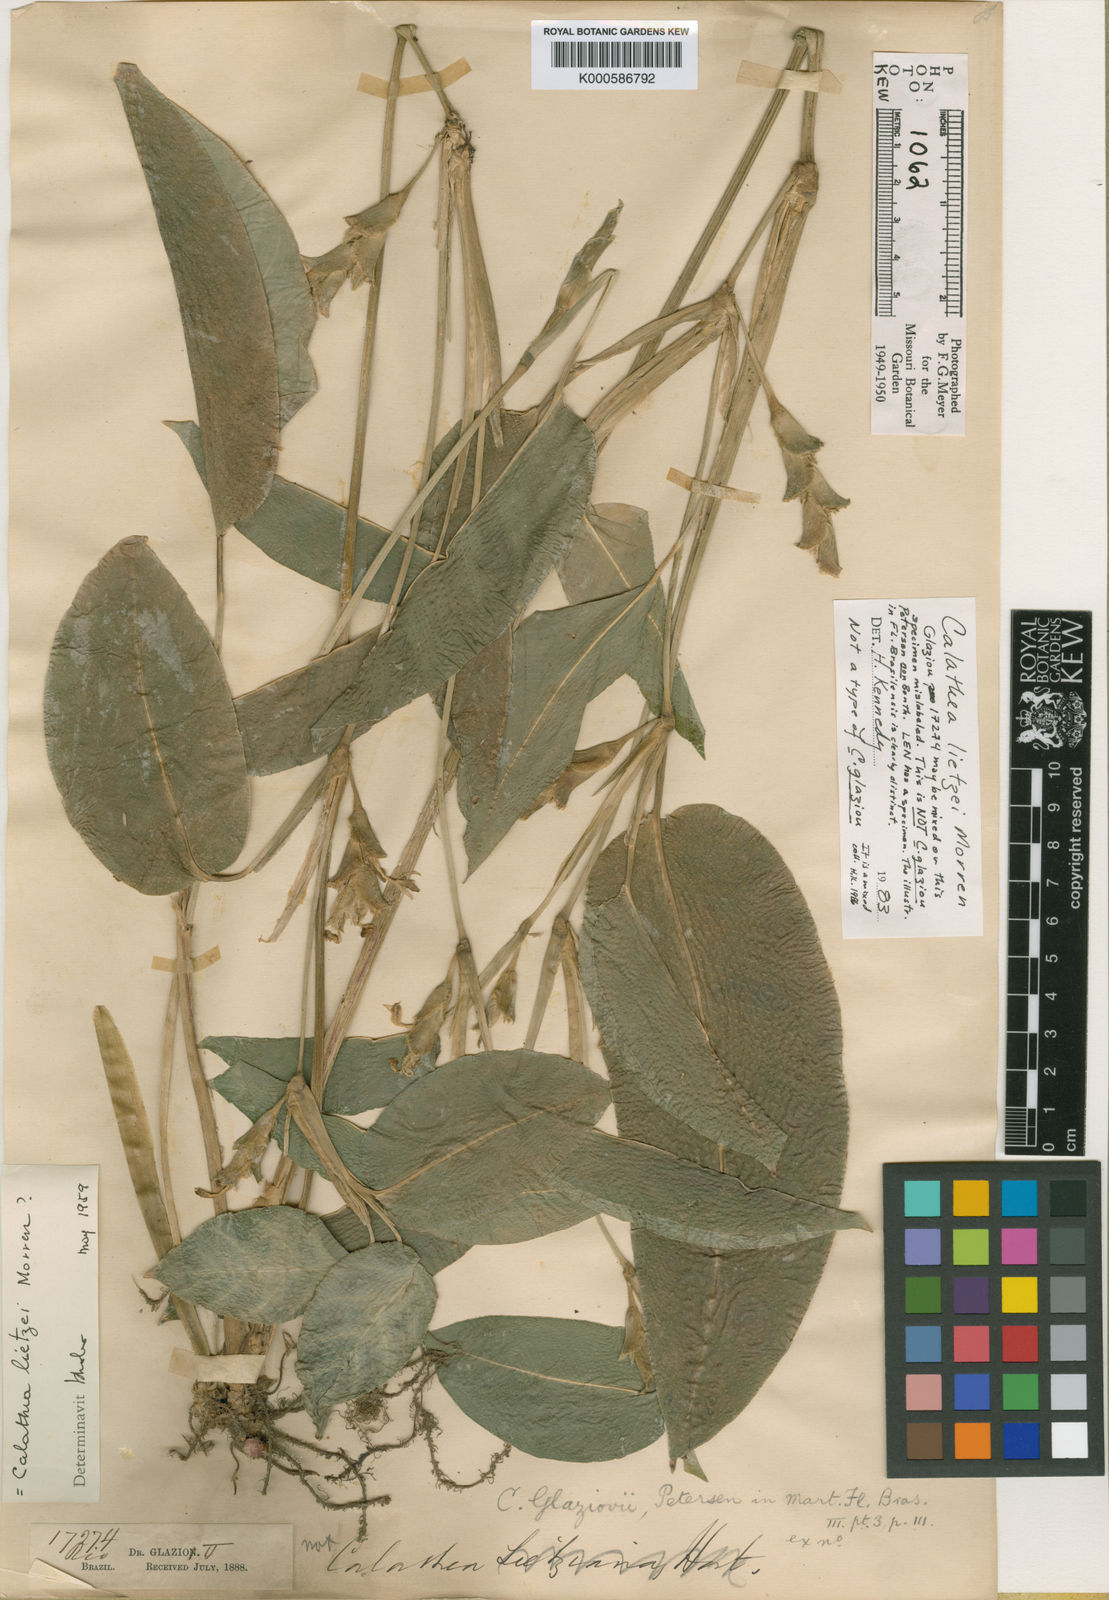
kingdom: Plantae
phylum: Tracheophyta
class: Liliopsida
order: Zingiberales
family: Marantaceae
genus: Goeppertia
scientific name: Goeppertia lietzei
